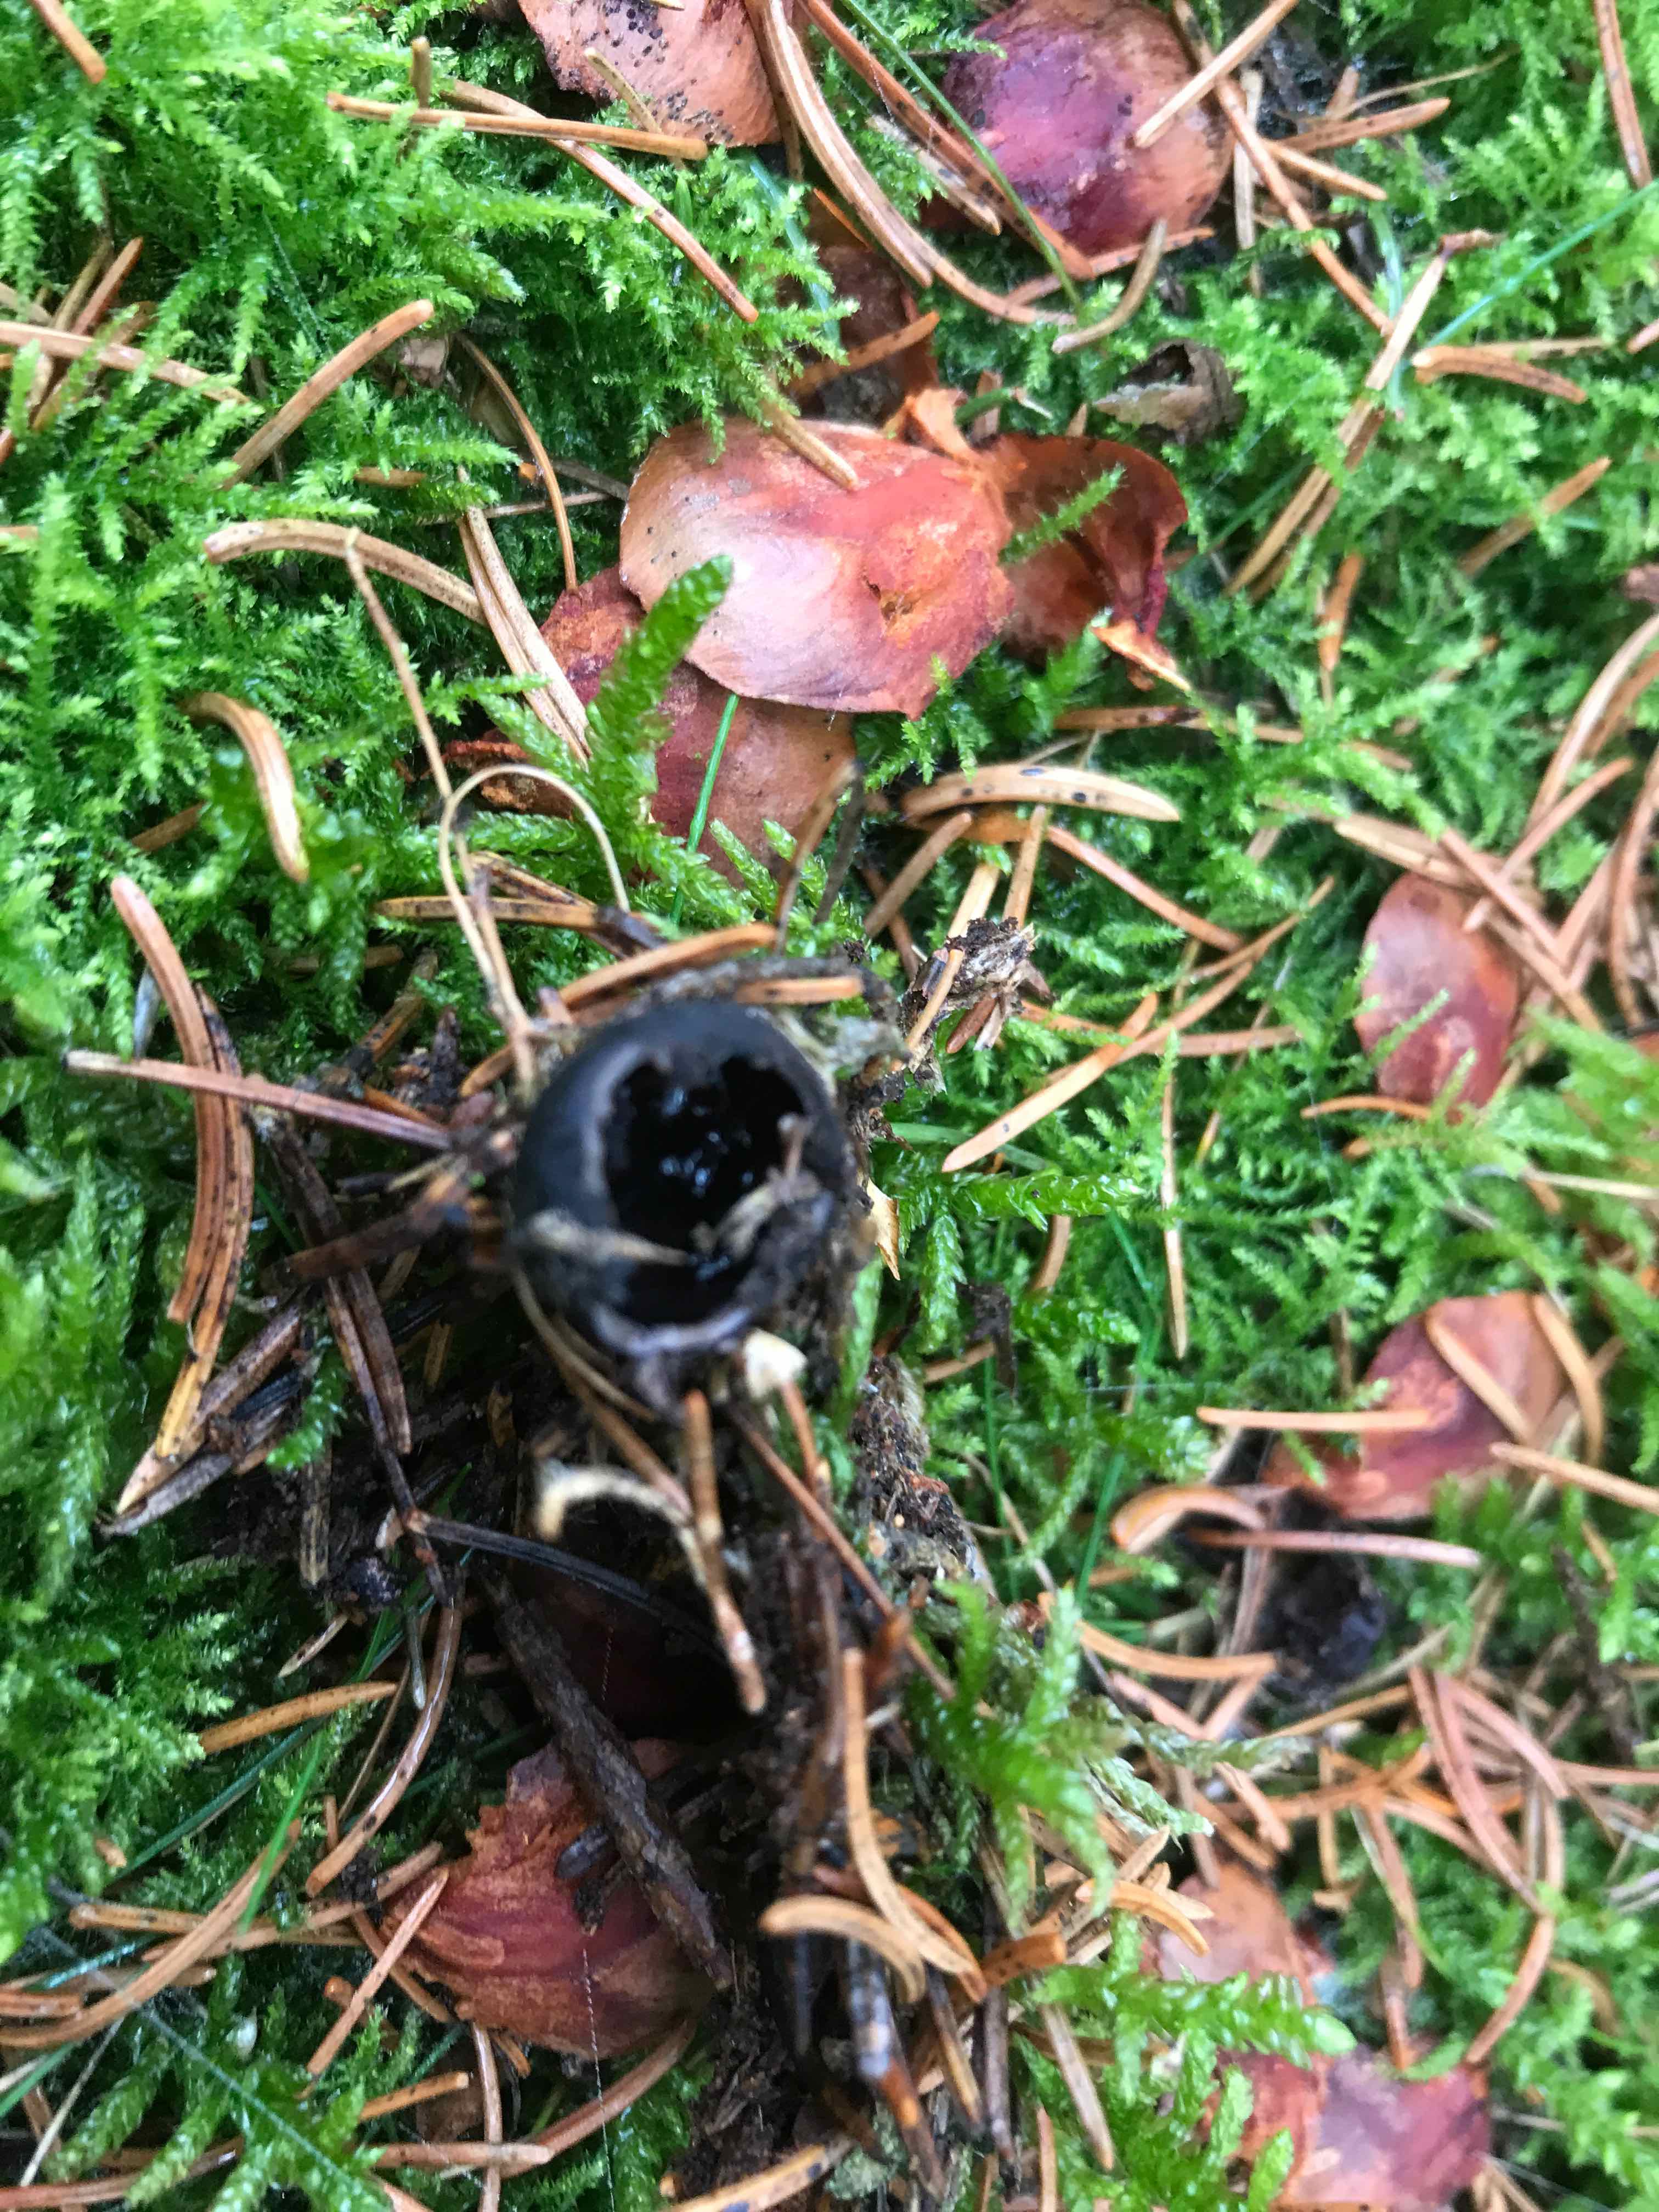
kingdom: Fungi
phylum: Ascomycota
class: Pezizomycetes
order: Pezizales
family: Sarcosomataceae
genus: Pseudoplectania
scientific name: Pseudoplectania nigrella
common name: almindelig sortbæger
